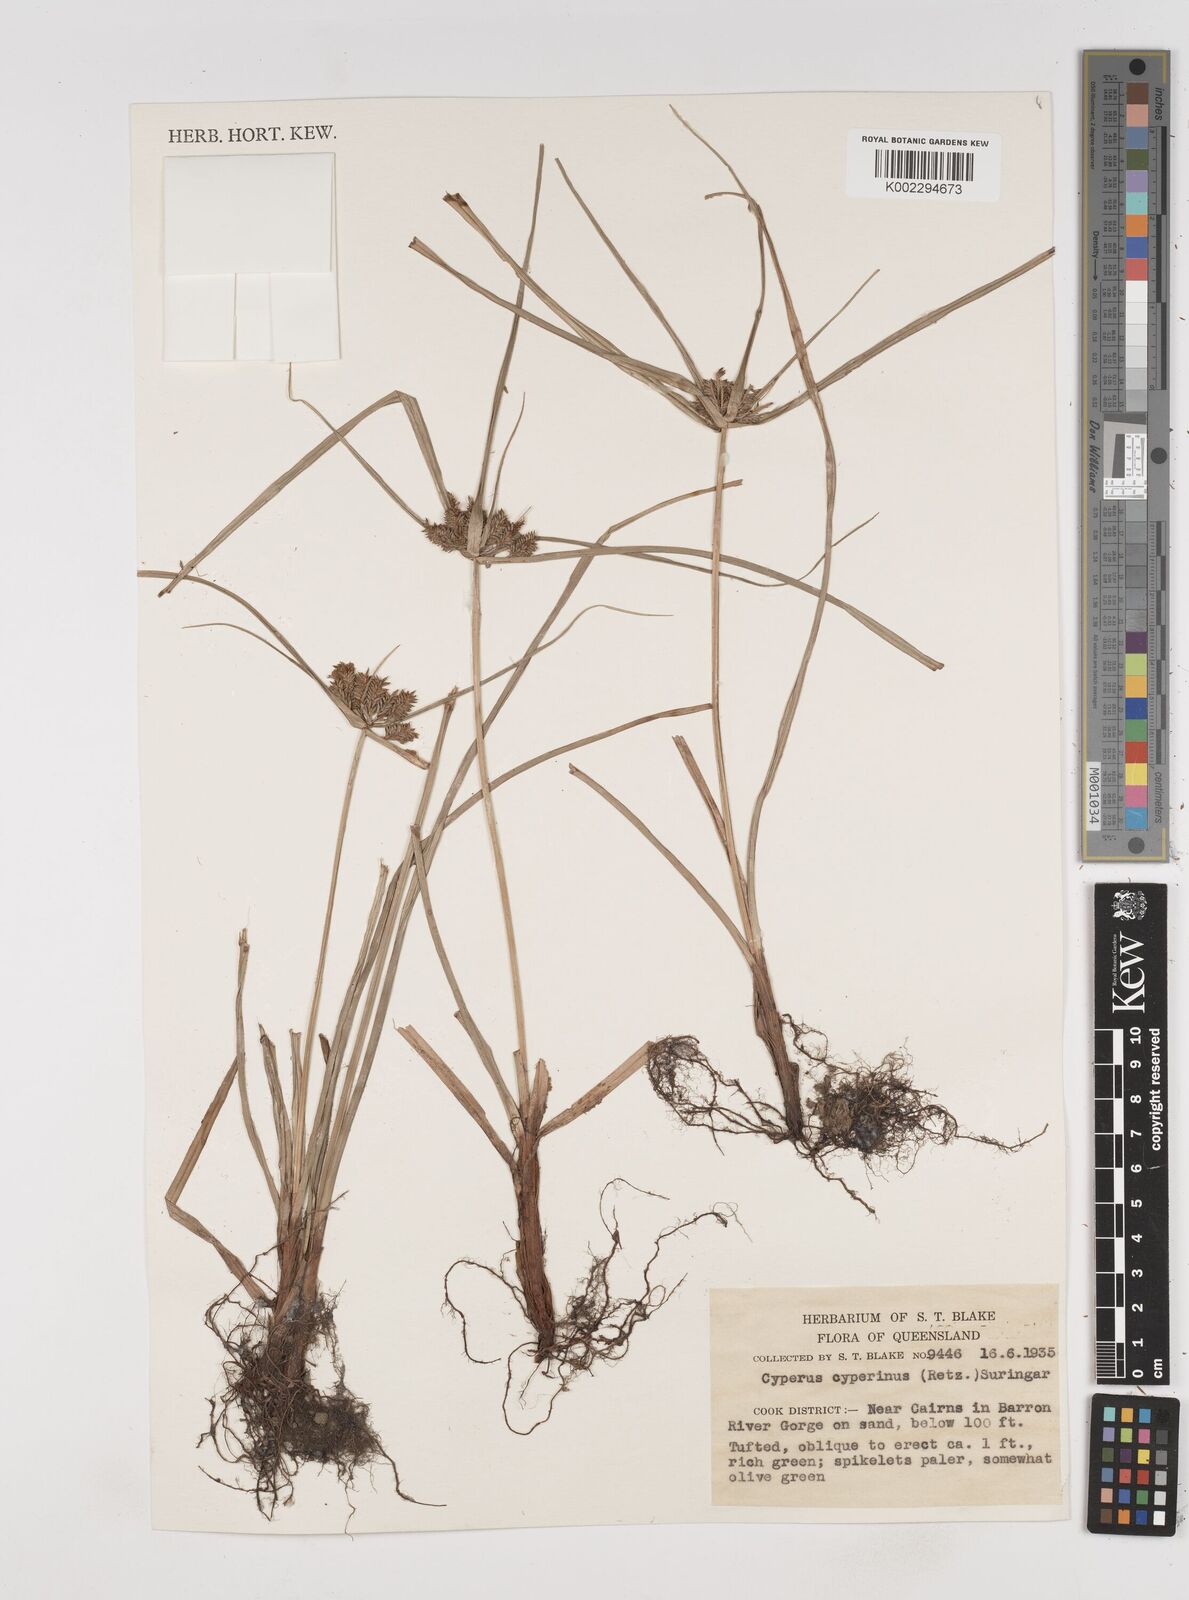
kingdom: Plantae
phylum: Tracheophyta
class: Liliopsida
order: Poales
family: Cyperaceae
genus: Cyperus
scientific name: Cyperus cyperinus
